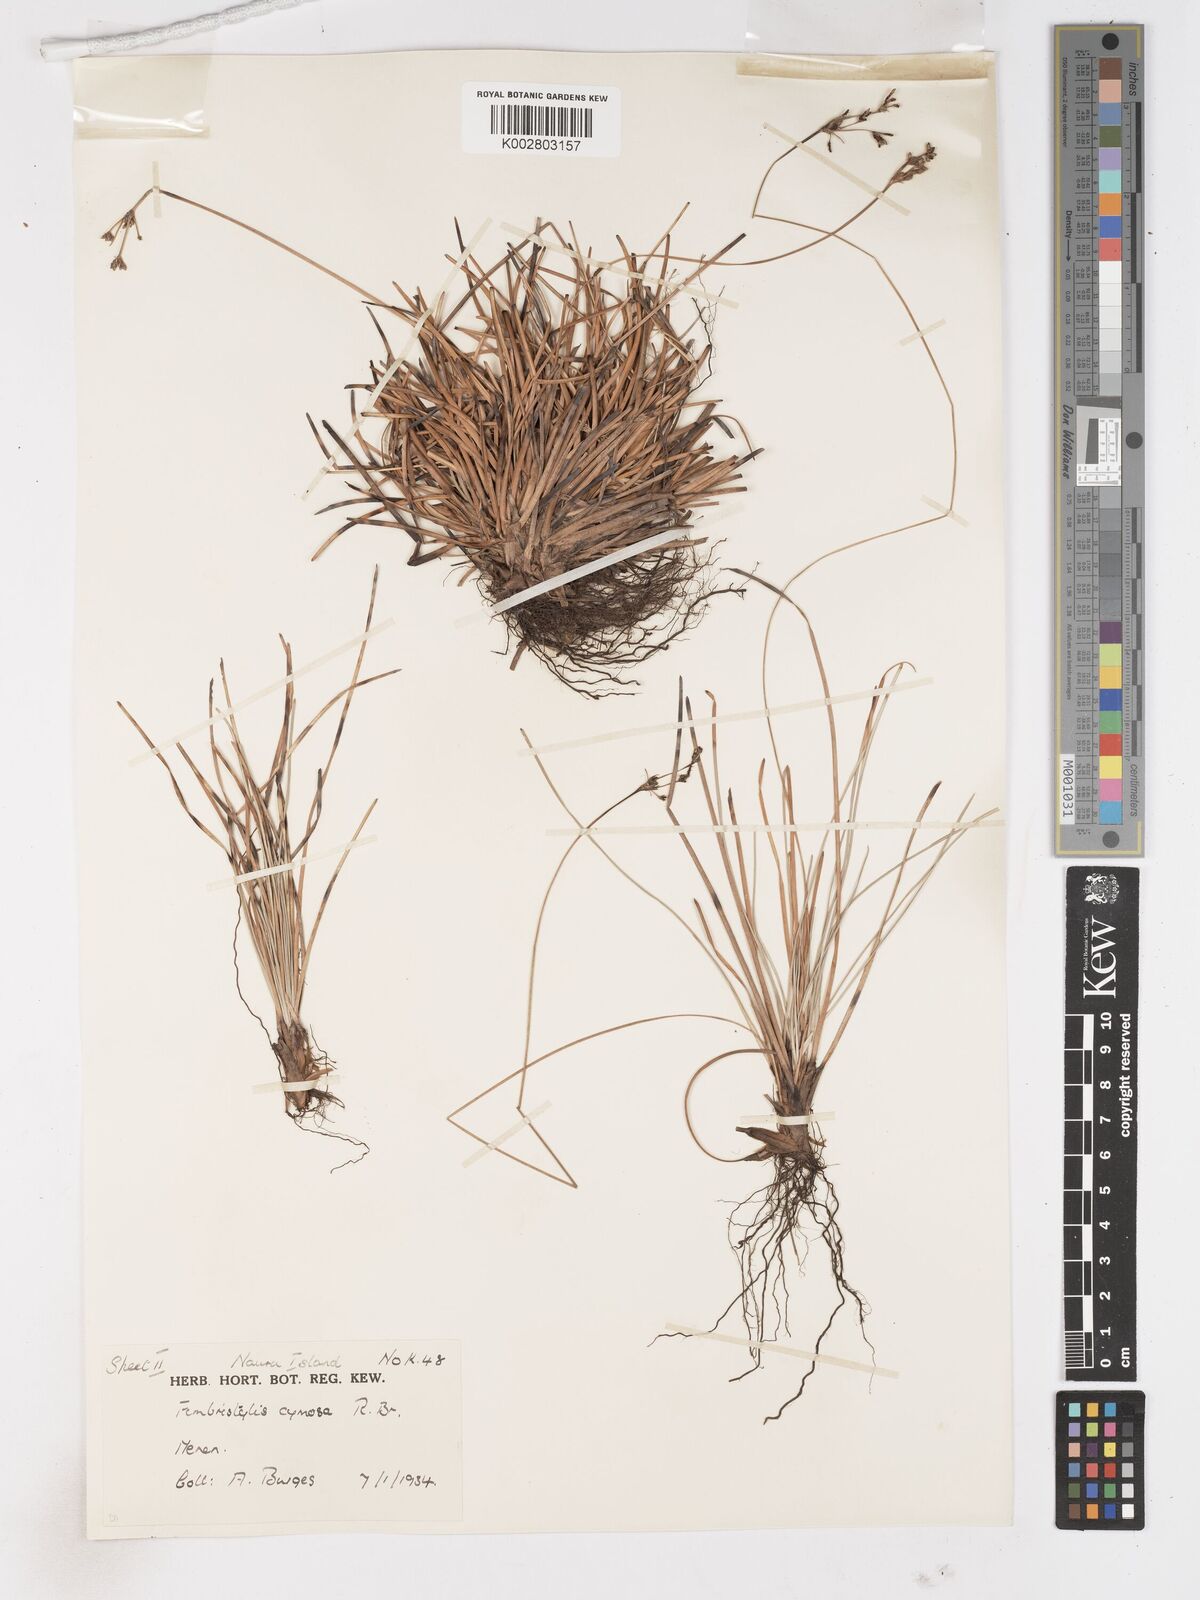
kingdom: Plantae
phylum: Tracheophyta
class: Liliopsida
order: Poales
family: Cyperaceae
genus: Fimbristylis
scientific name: Fimbristylis cymosa
